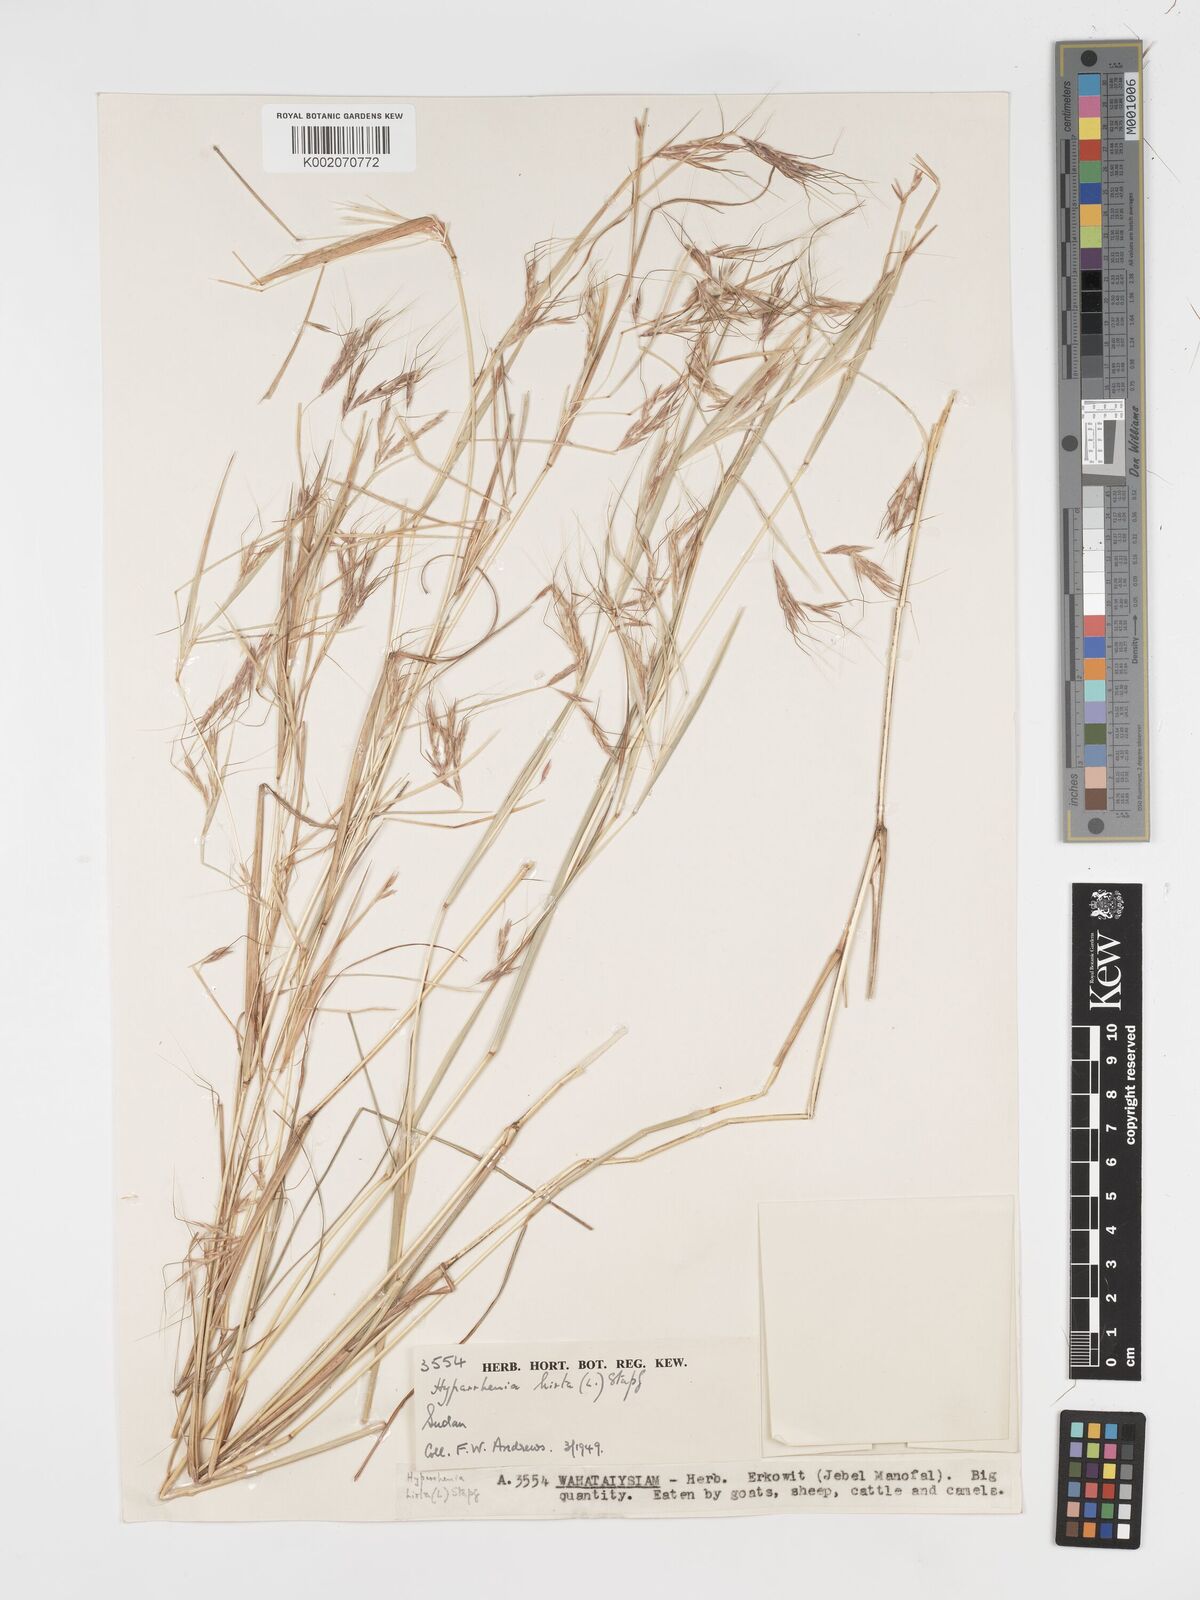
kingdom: Plantae
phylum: Tracheophyta
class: Liliopsida
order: Poales
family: Poaceae
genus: Hyparrhenia
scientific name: Hyparrhenia hirta
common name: Thatching grass
